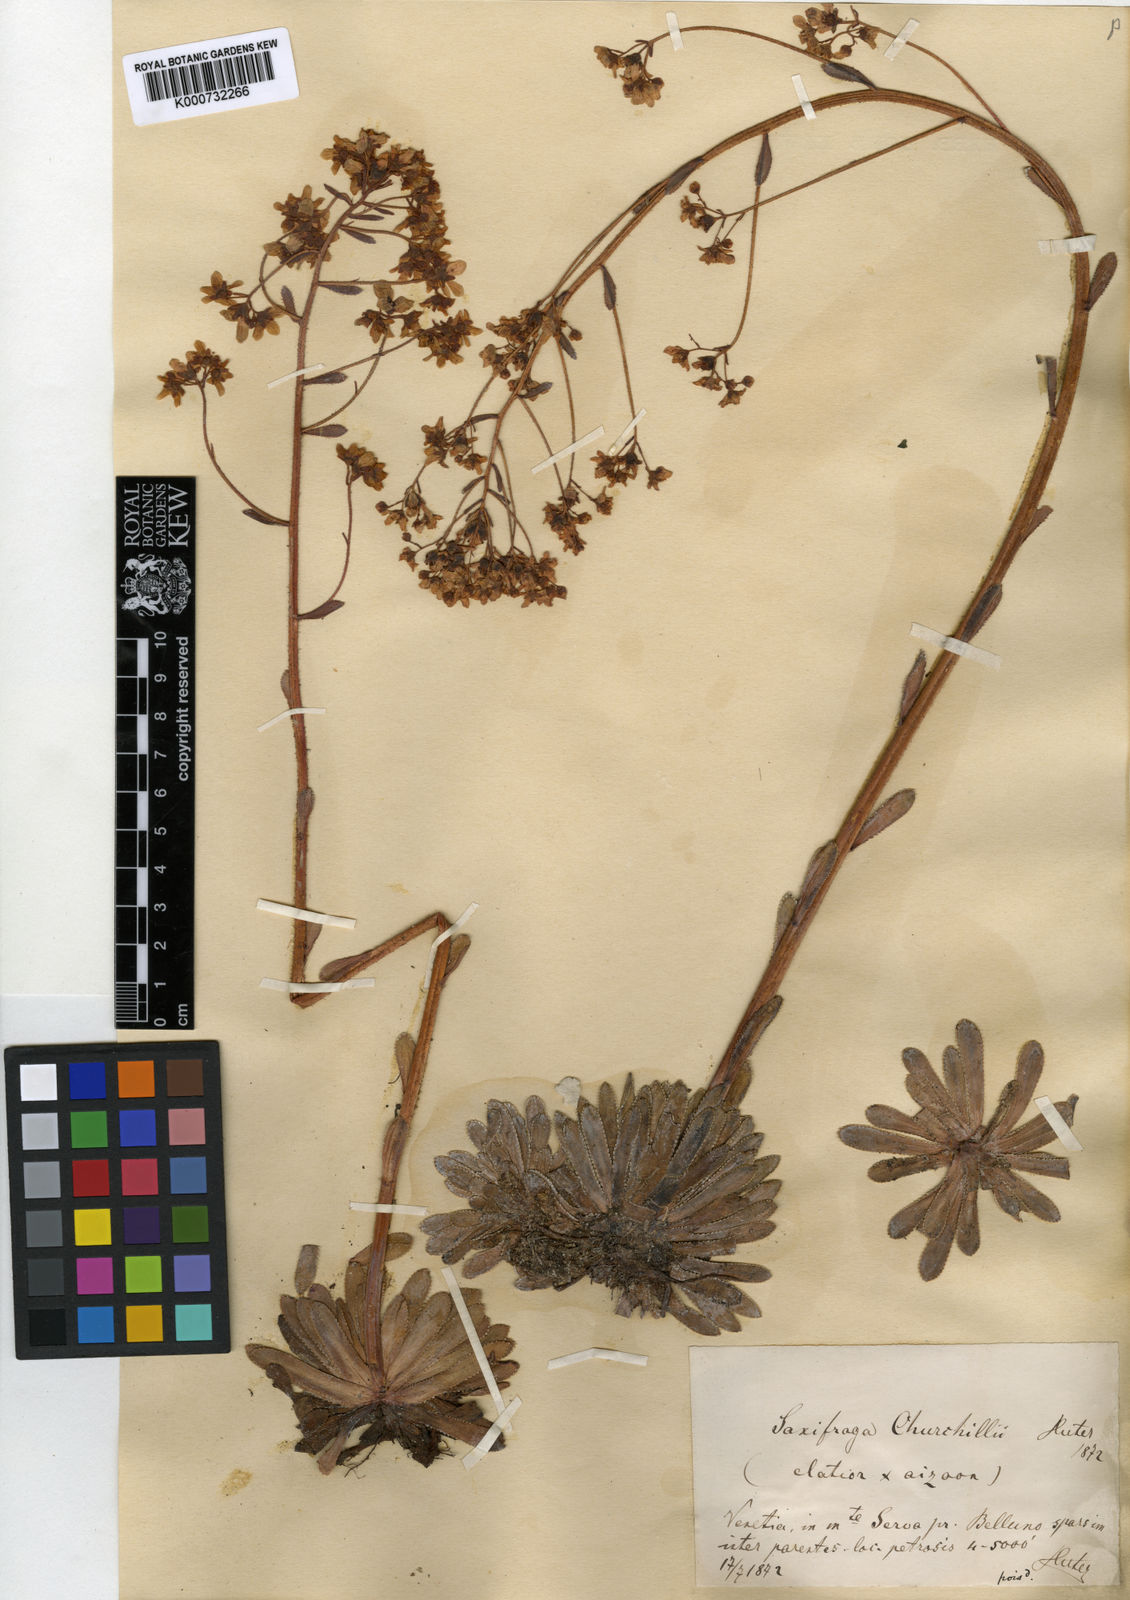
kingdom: Plantae
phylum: Tracheophyta
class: Magnoliopsida
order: Saxifragales
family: Saxifragaceae
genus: Saxifraga
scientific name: Saxifraga paniculata
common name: Livelong saxifrage
